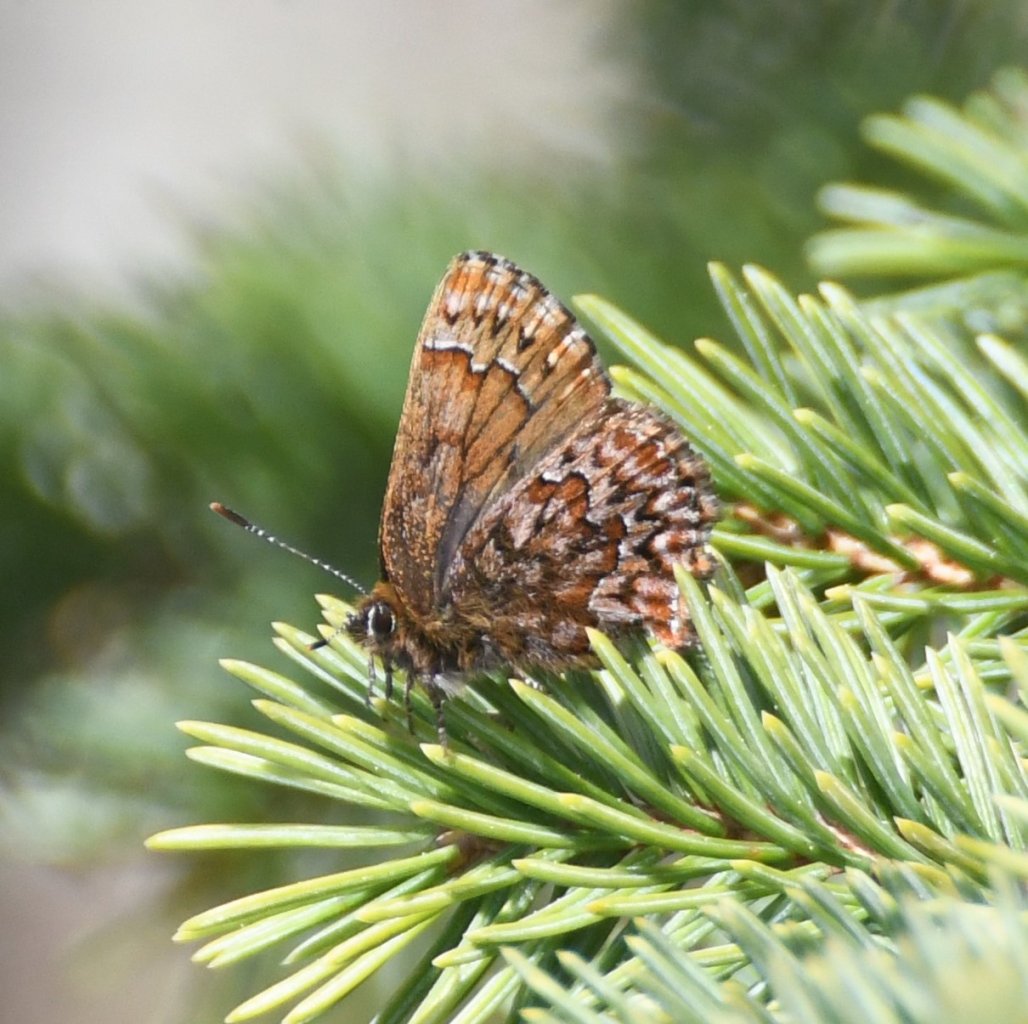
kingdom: Animalia
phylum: Arthropoda
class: Insecta
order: Lepidoptera
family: Lycaenidae
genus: Incisalia
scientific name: Incisalia eryphon
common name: Western Pine Elfin
